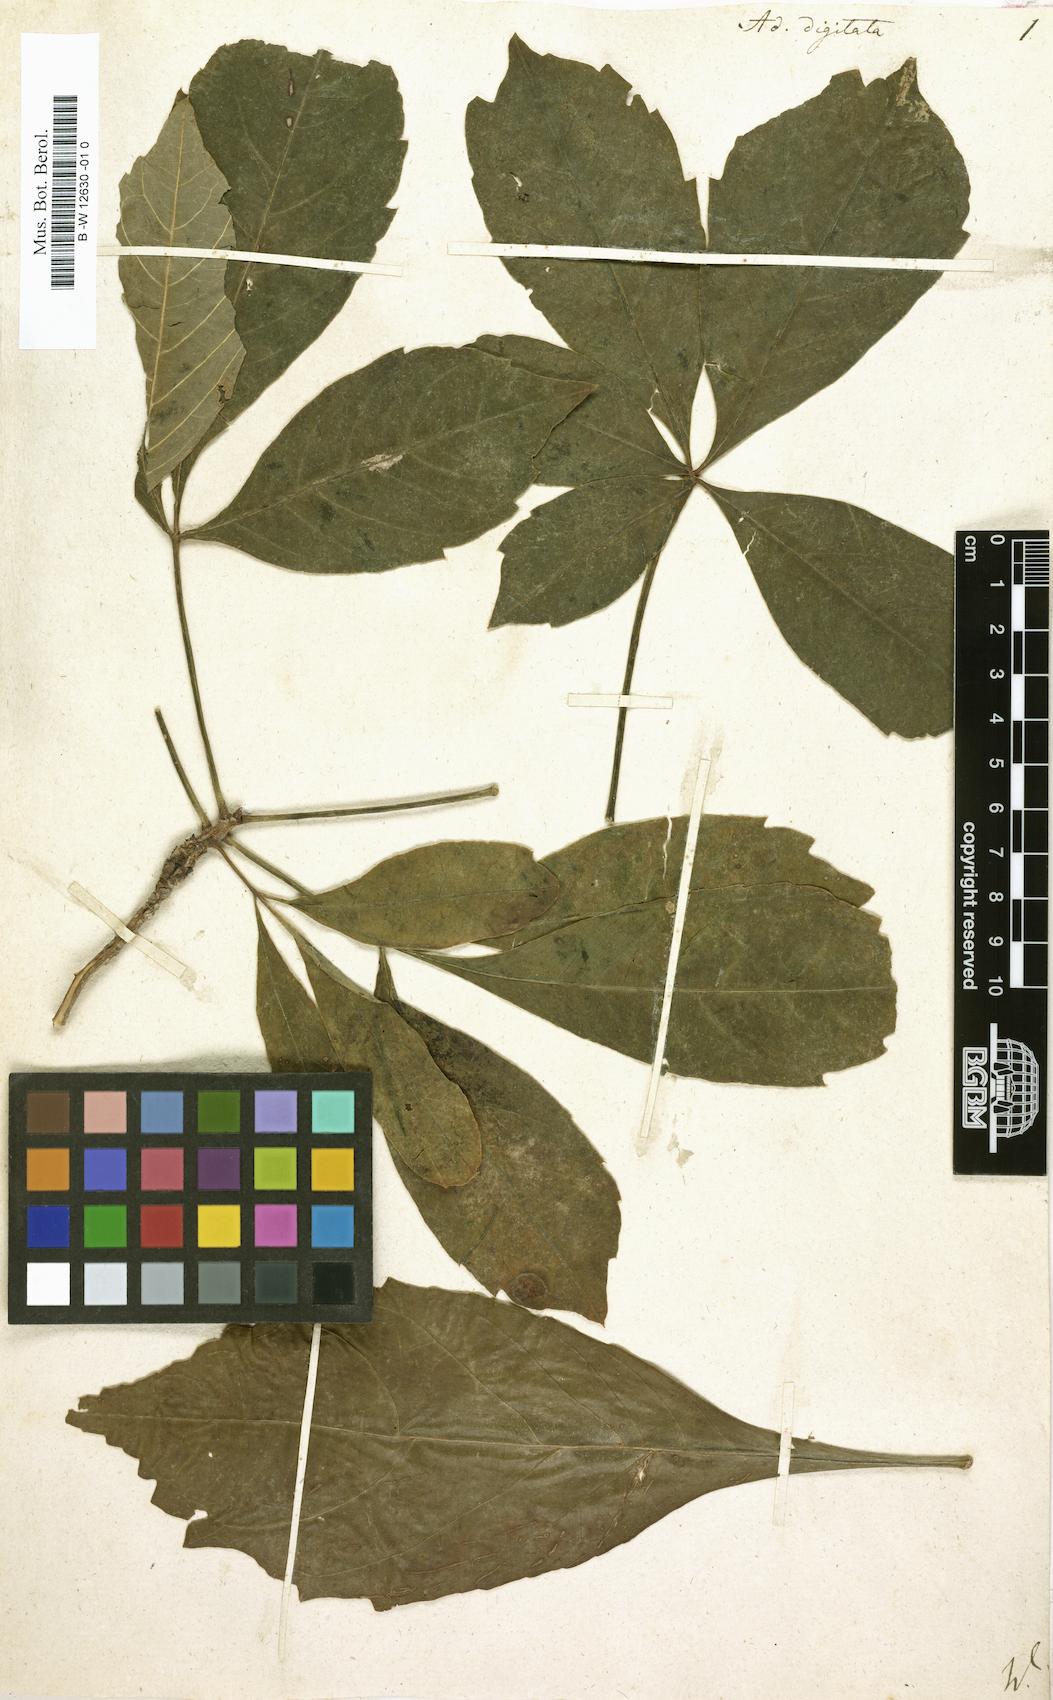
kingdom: Plantae
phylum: Tracheophyta
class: Magnoliopsida
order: Malvales
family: Malvaceae
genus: Adansonia
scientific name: Adansonia digitata
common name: Dead-rat-tree
